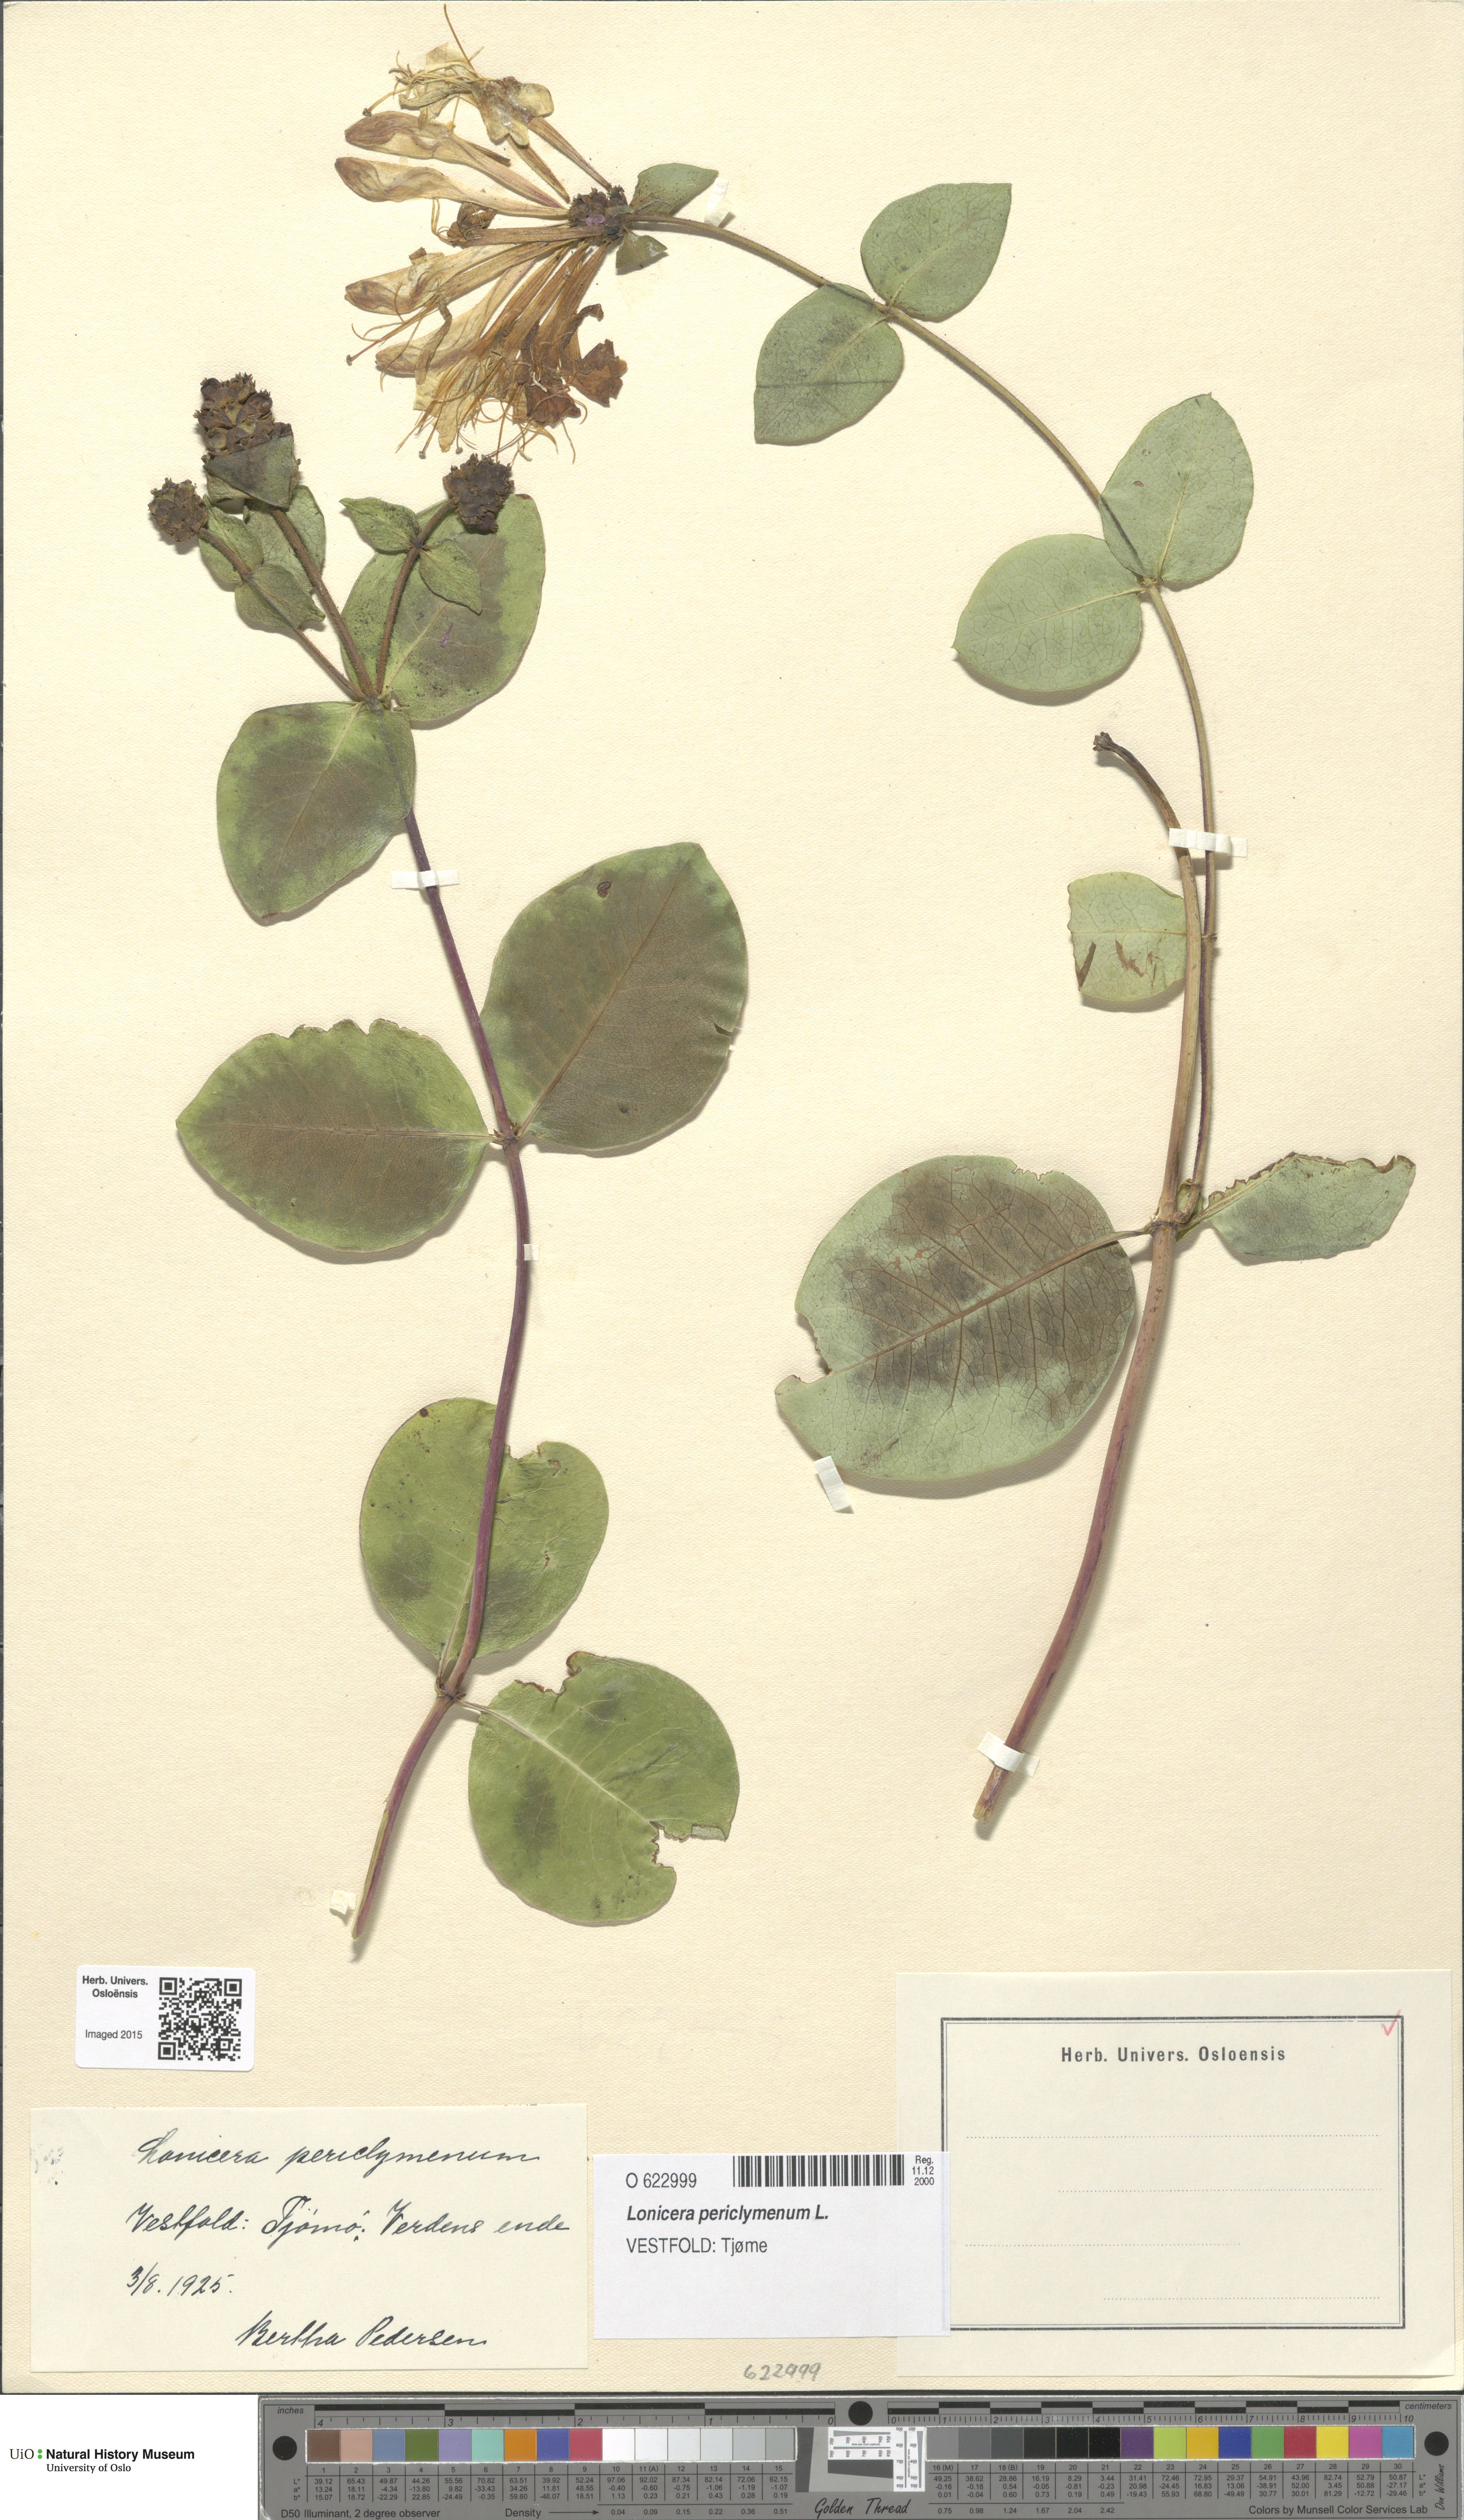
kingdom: Plantae
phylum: Tracheophyta
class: Magnoliopsida
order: Dipsacales
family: Caprifoliaceae
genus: Lonicera
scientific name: Lonicera periclymenum
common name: European honeysuckle
